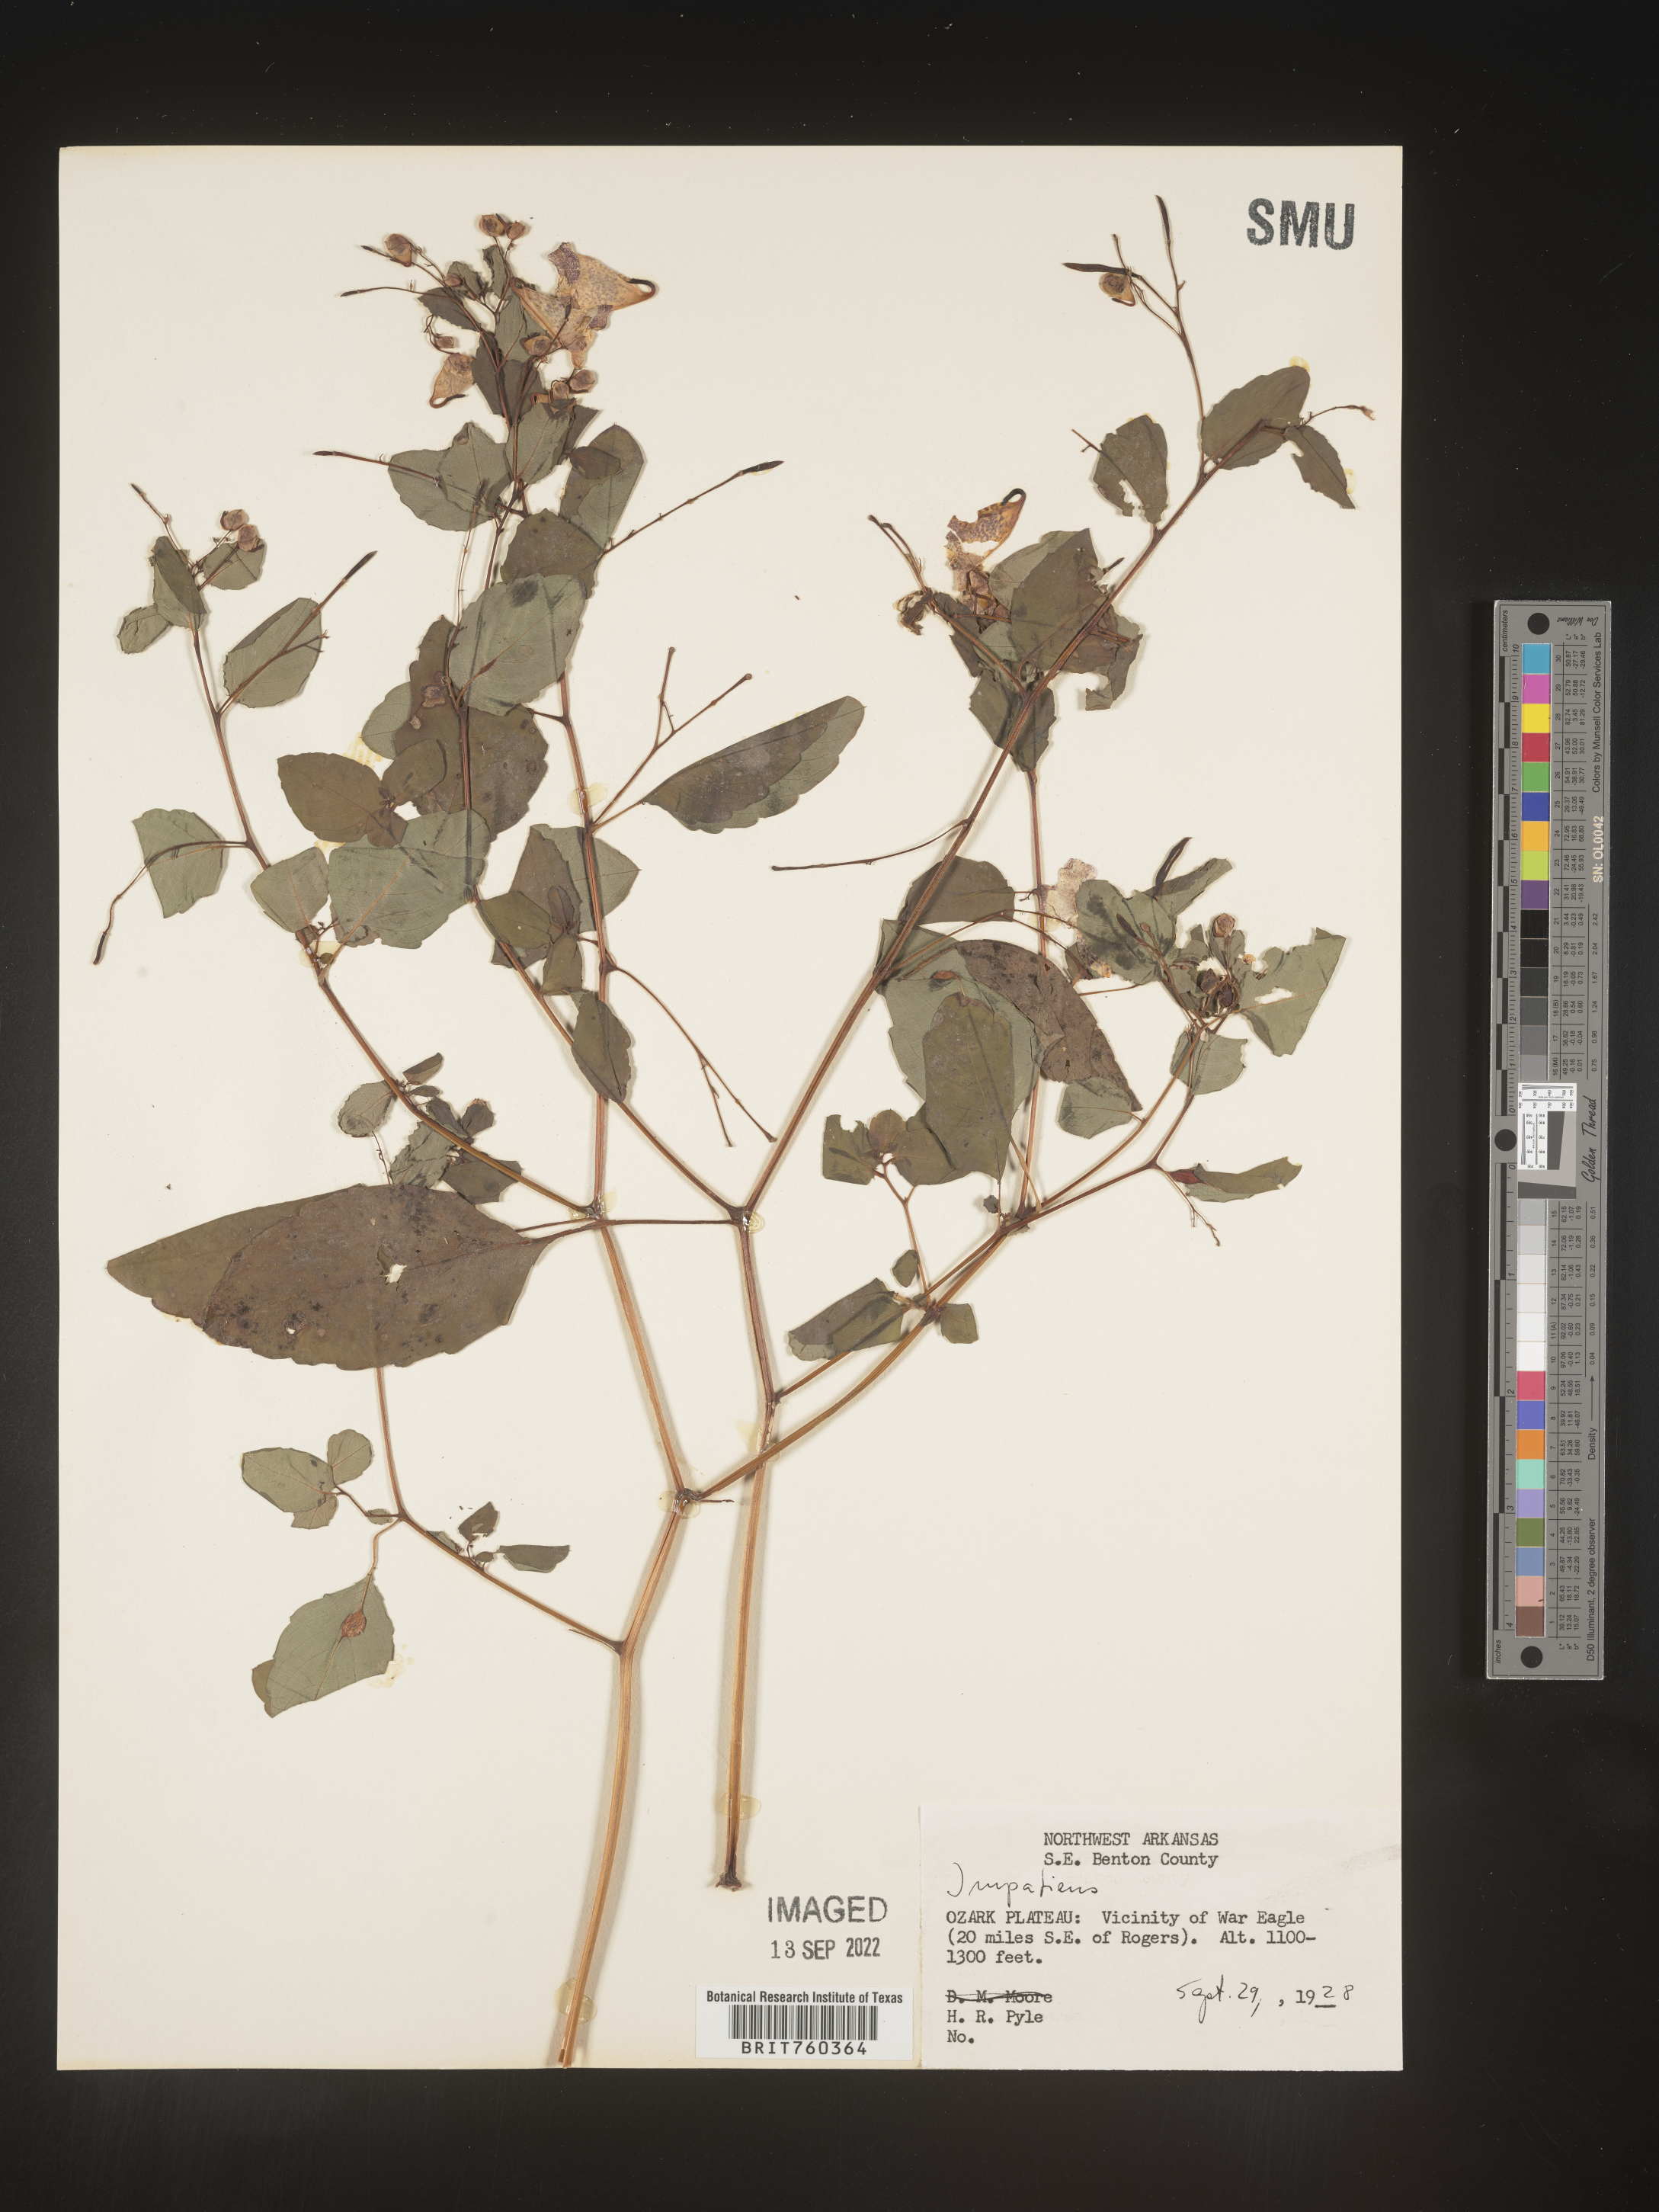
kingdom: Plantae
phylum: Tracheophyta
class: Magnoliopsida
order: Ericales
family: Balsaminaceae
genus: Impatiens
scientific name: Impatiens
